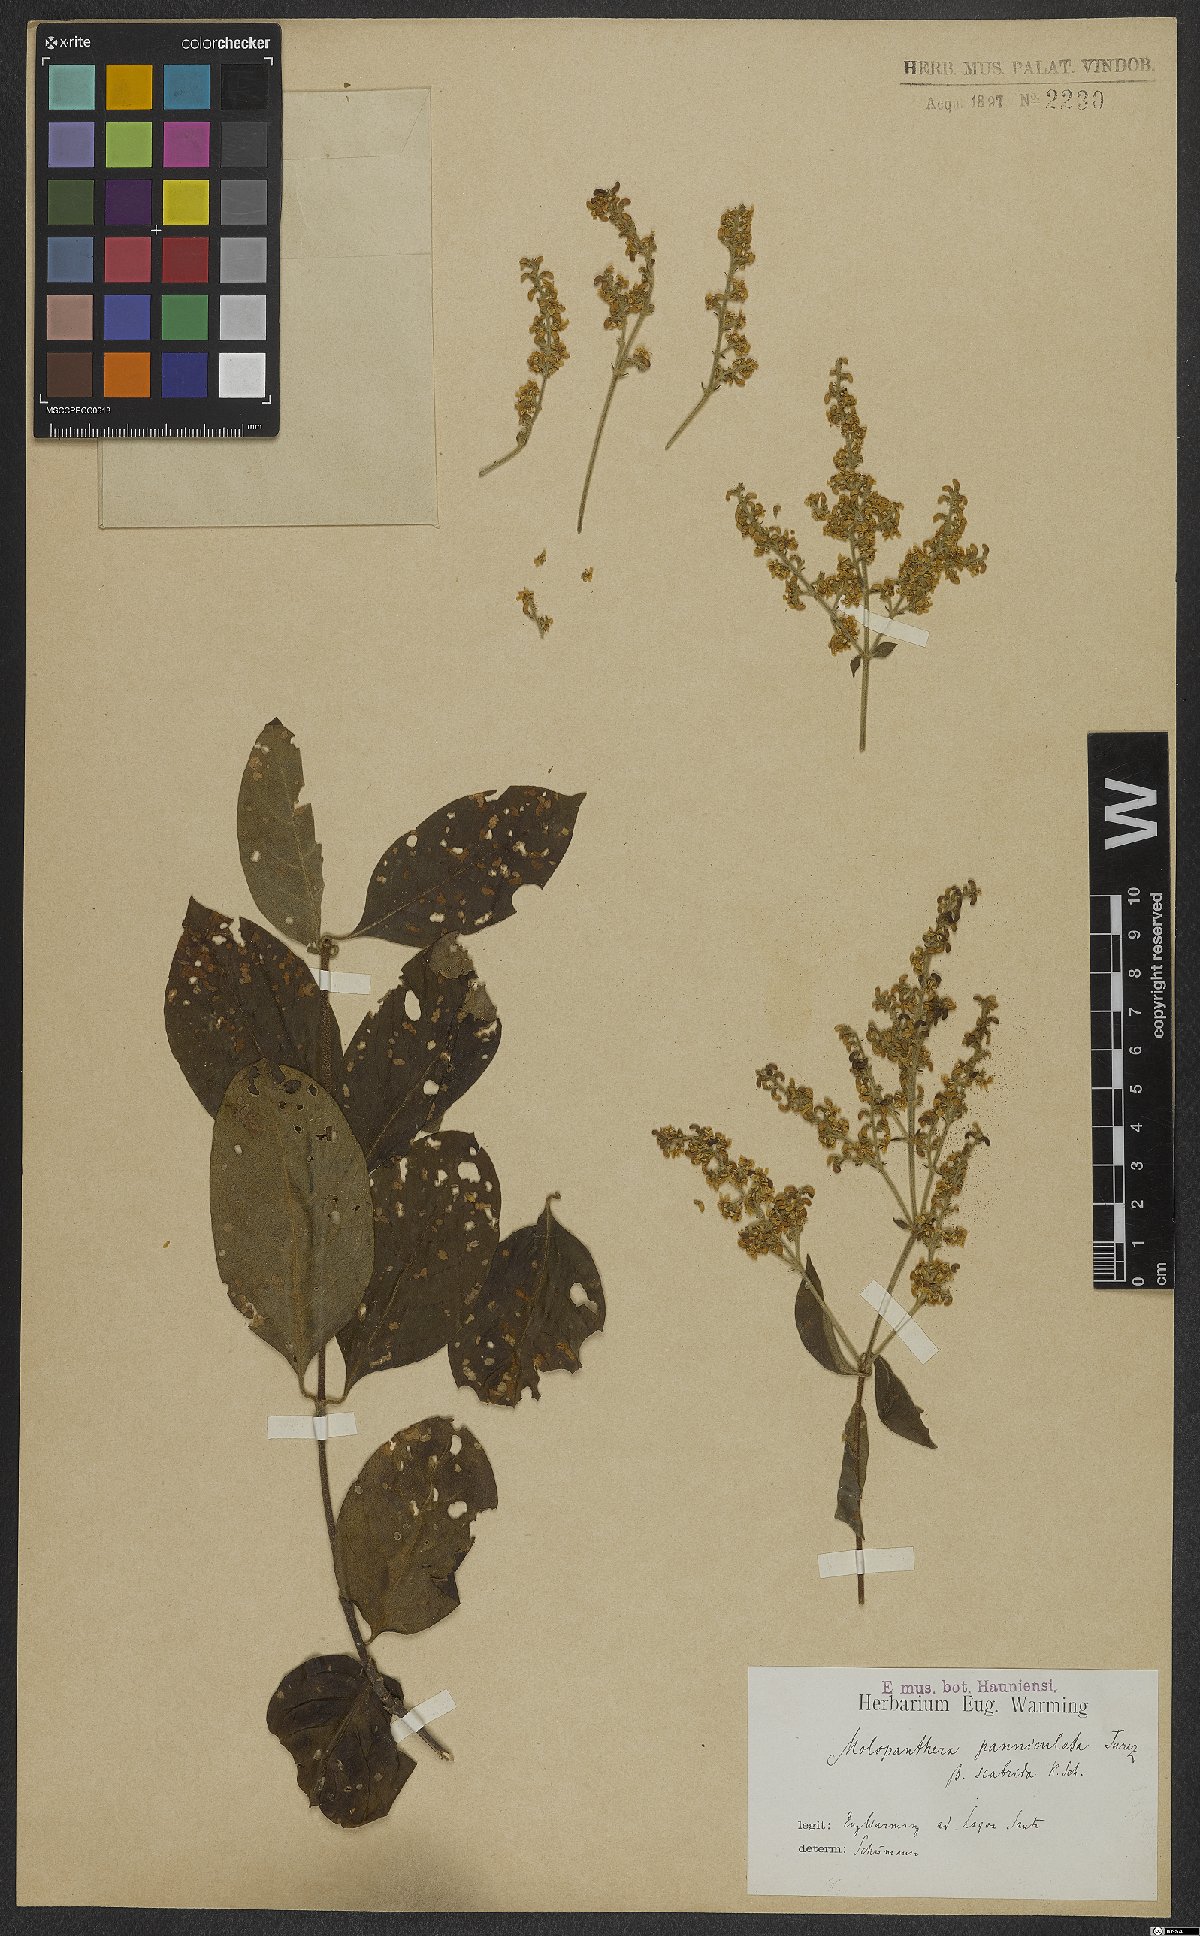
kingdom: Plantae
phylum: Tracheophyta
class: Magnoliopsida
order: Gentianales
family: Rubiaceae
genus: Molopanthera
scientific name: Molopanthera paniculata
